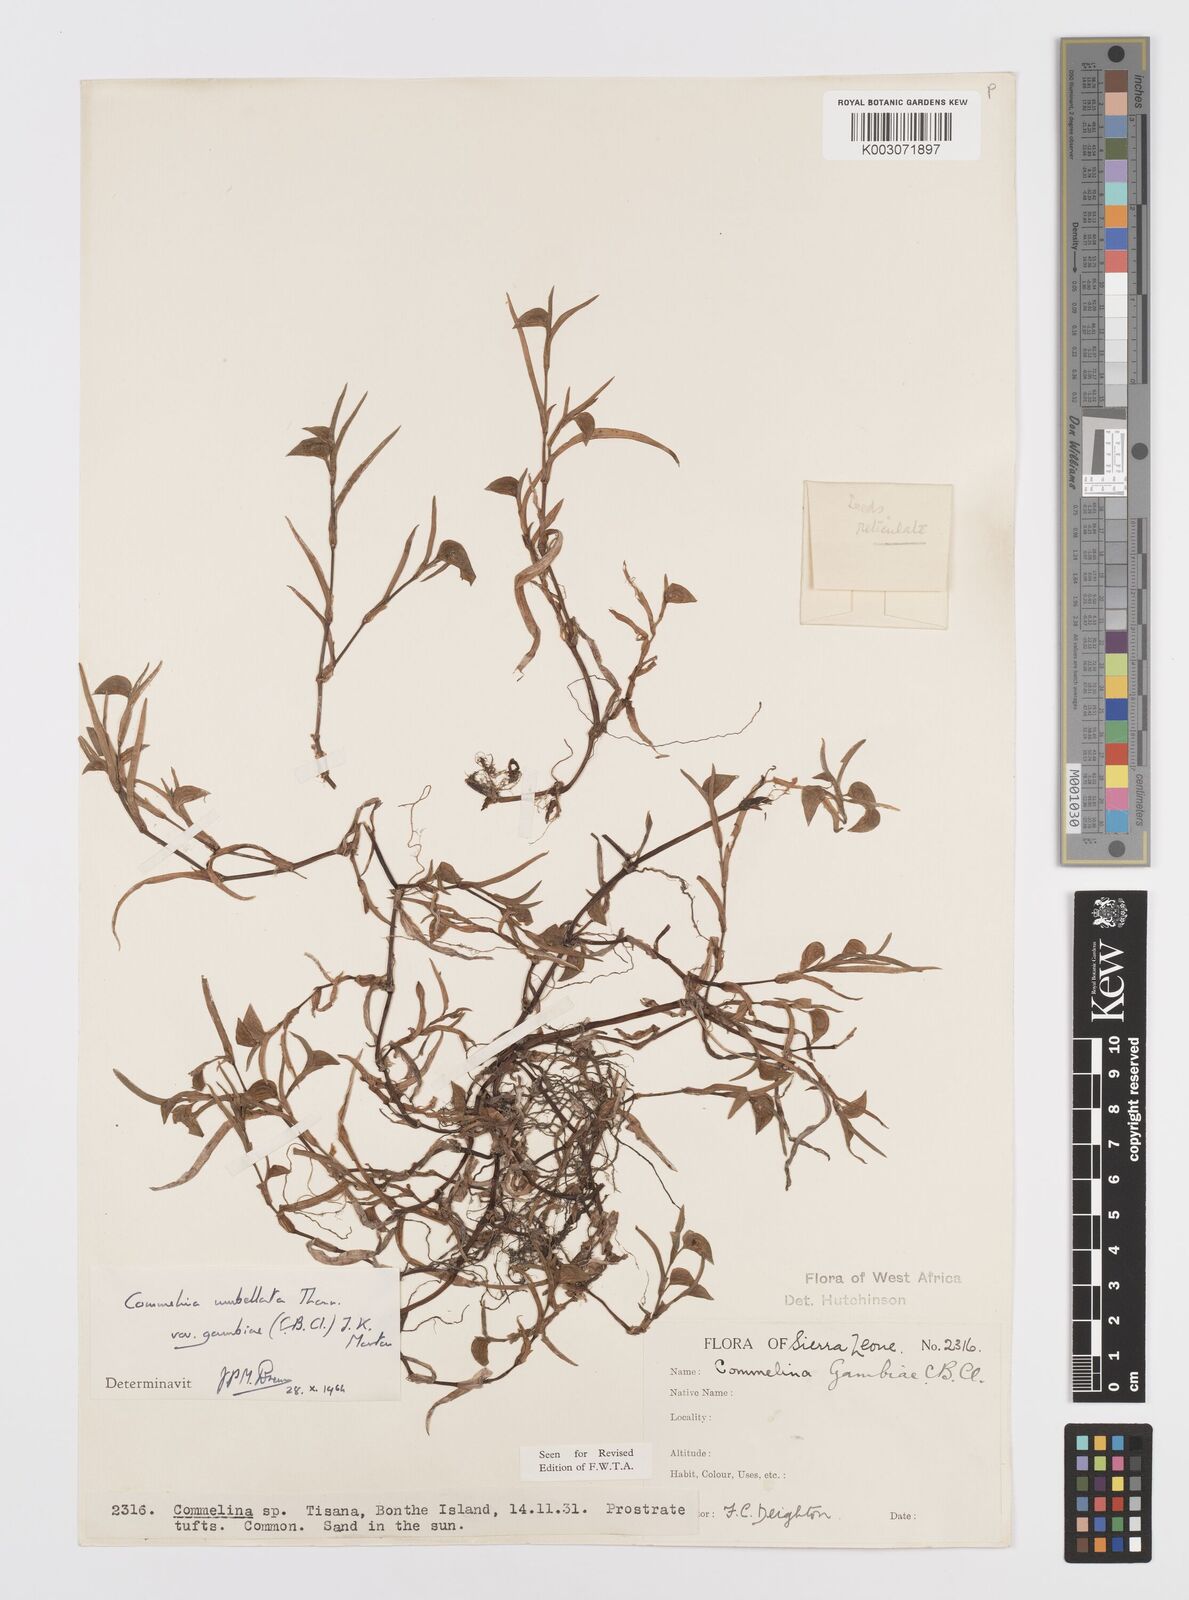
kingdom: Plantae
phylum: Tracheophyta
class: Liliopsida
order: Commelinales
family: Commelinaceae
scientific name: Commelinaceae
